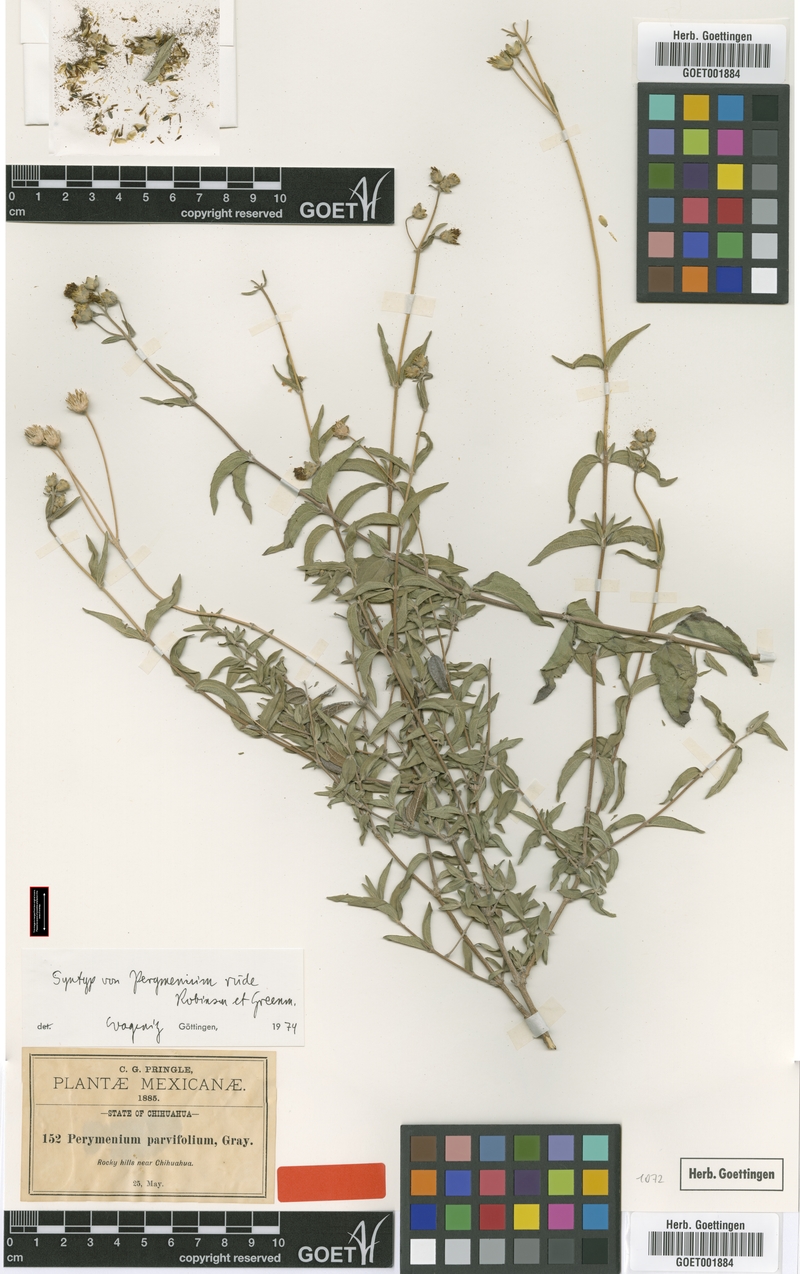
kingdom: Plantae
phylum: Tracheophyta
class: Magnoliopsida
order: Asterales
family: Asteraceae
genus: Perymenium
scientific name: Perymenium rude
